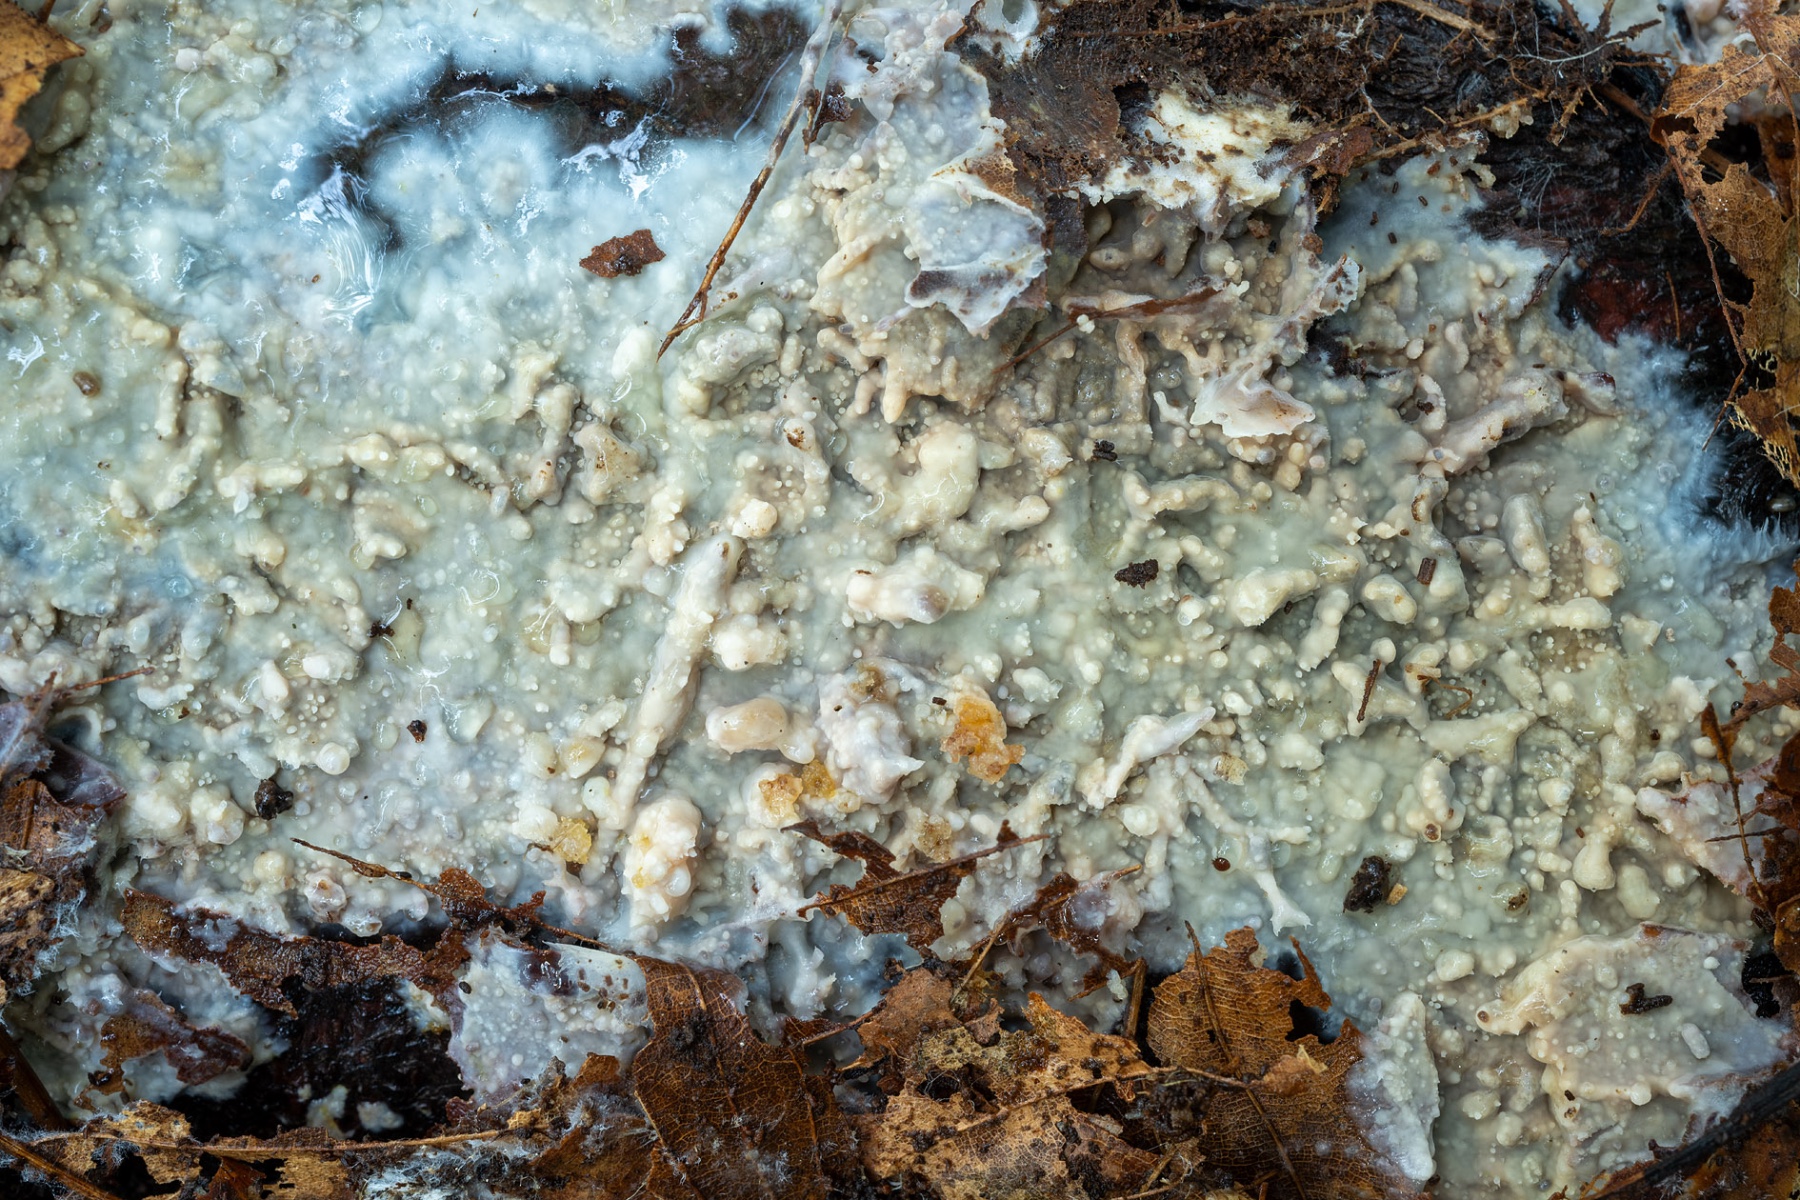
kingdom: Fungi
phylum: Basidiomycota
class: Agaricomycetes
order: Polyporales
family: Meruliaceae
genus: Cytidiella
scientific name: Cytidiella albida
